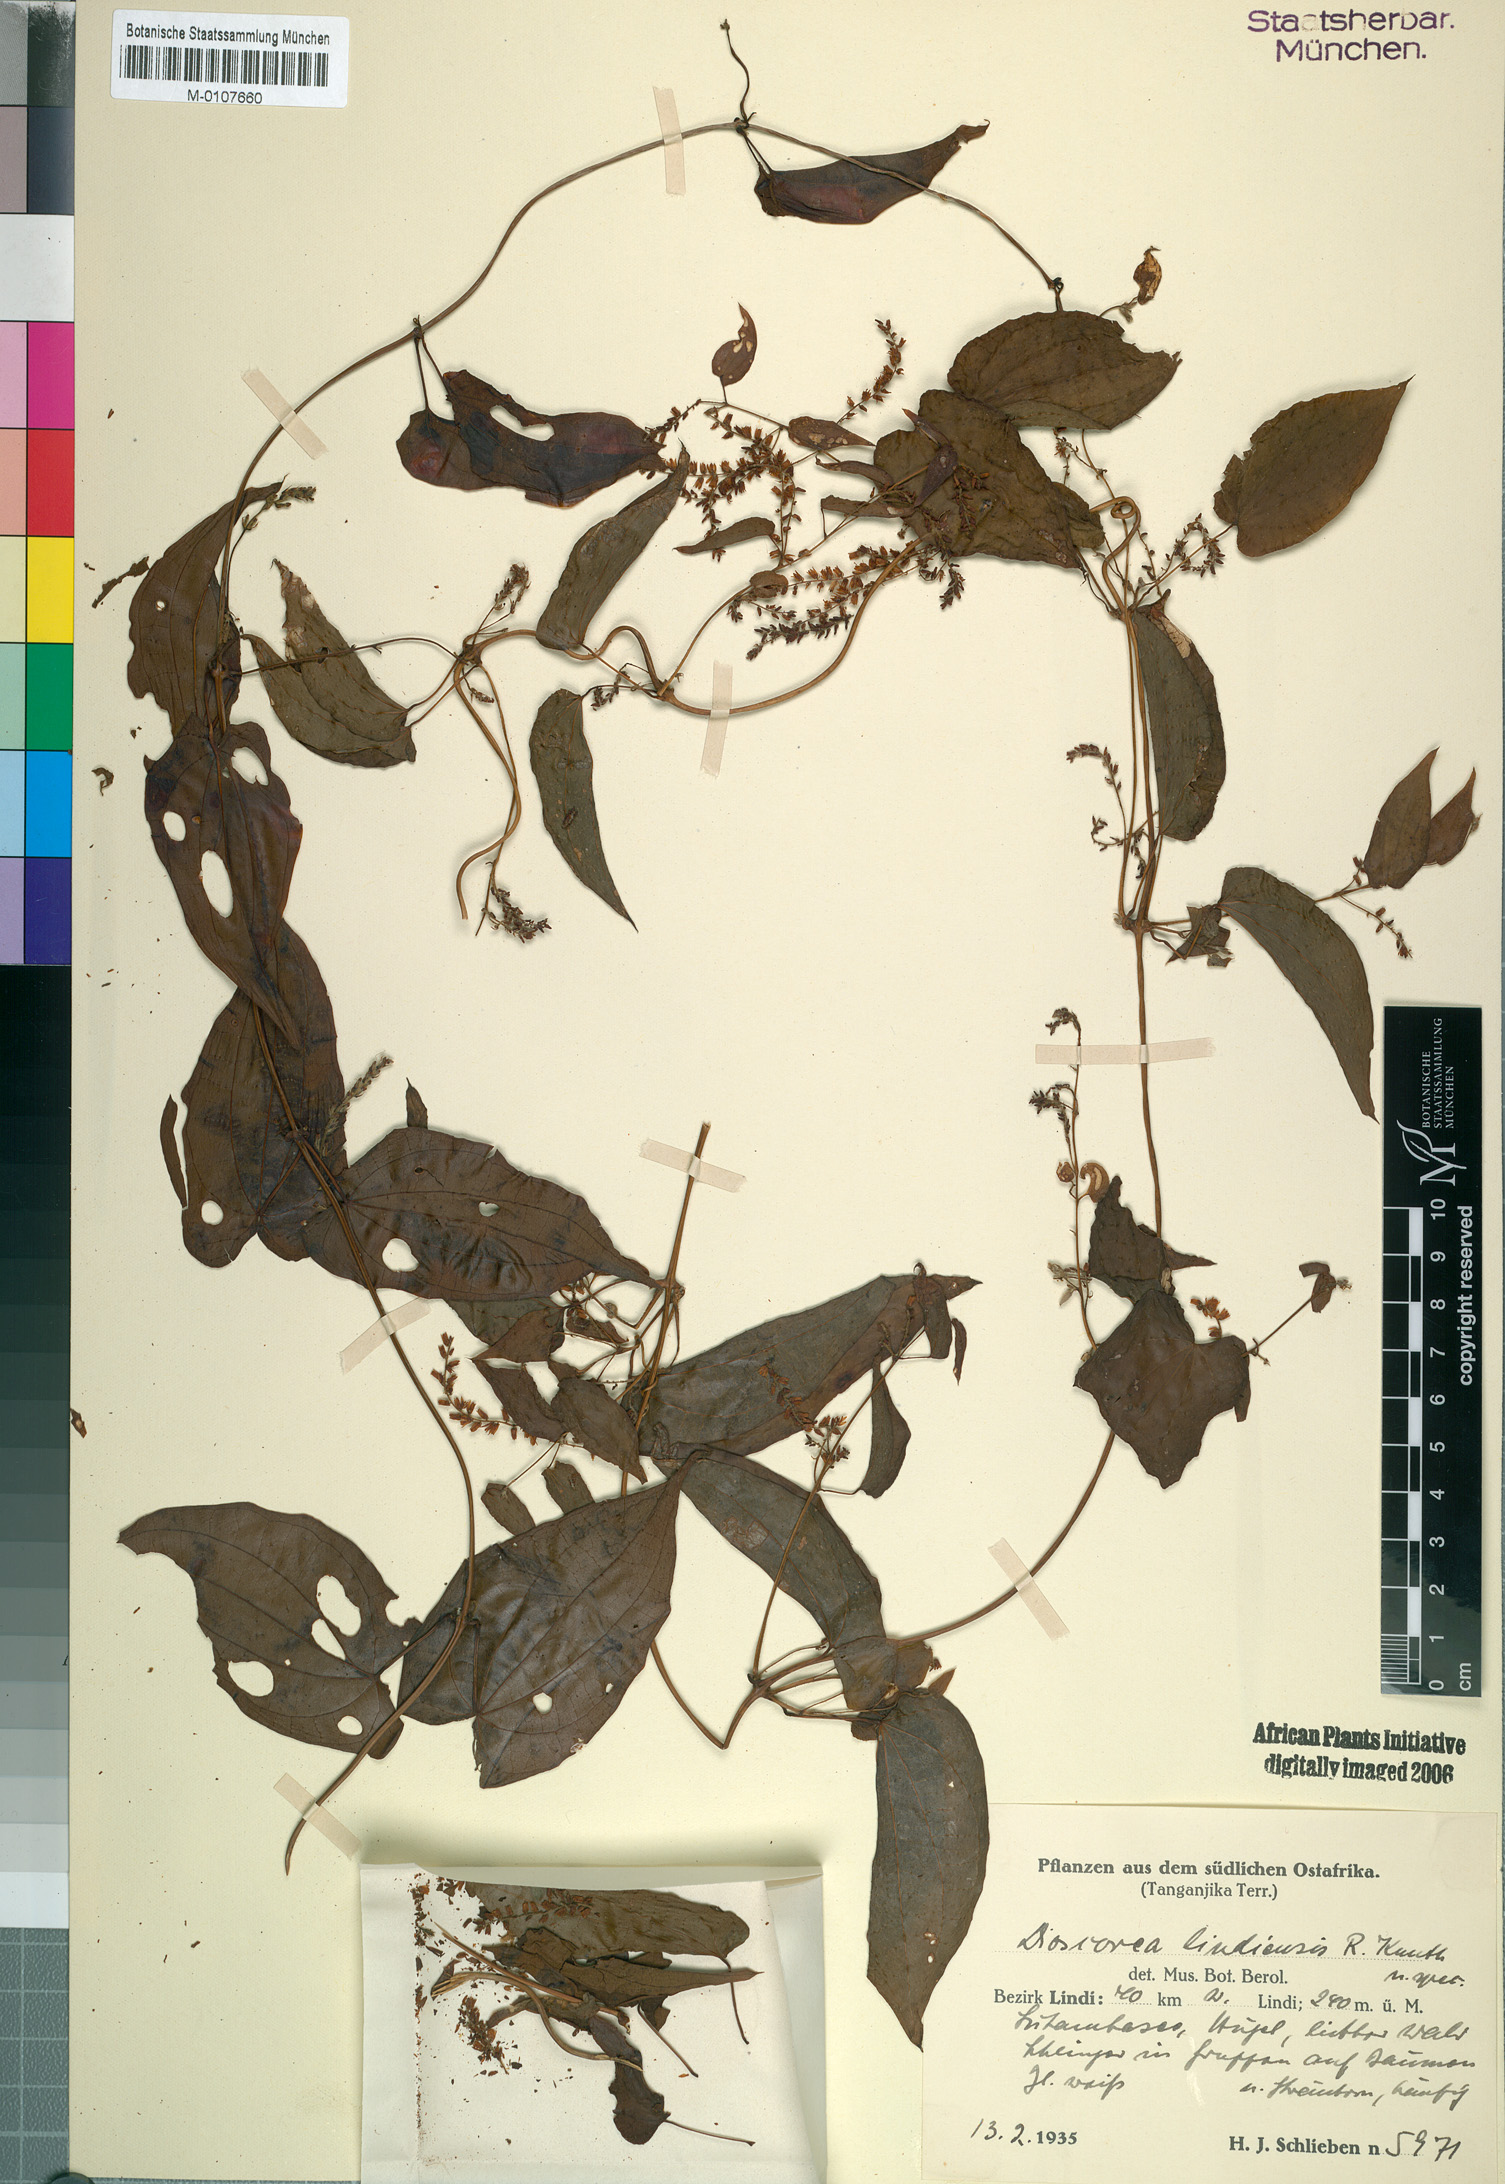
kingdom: Plantae
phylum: Tracheophyta
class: Liliopsida
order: Dioscoreales
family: Dioscoreaceae
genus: Dioscorea
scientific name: Dioscorea hirtiflora
